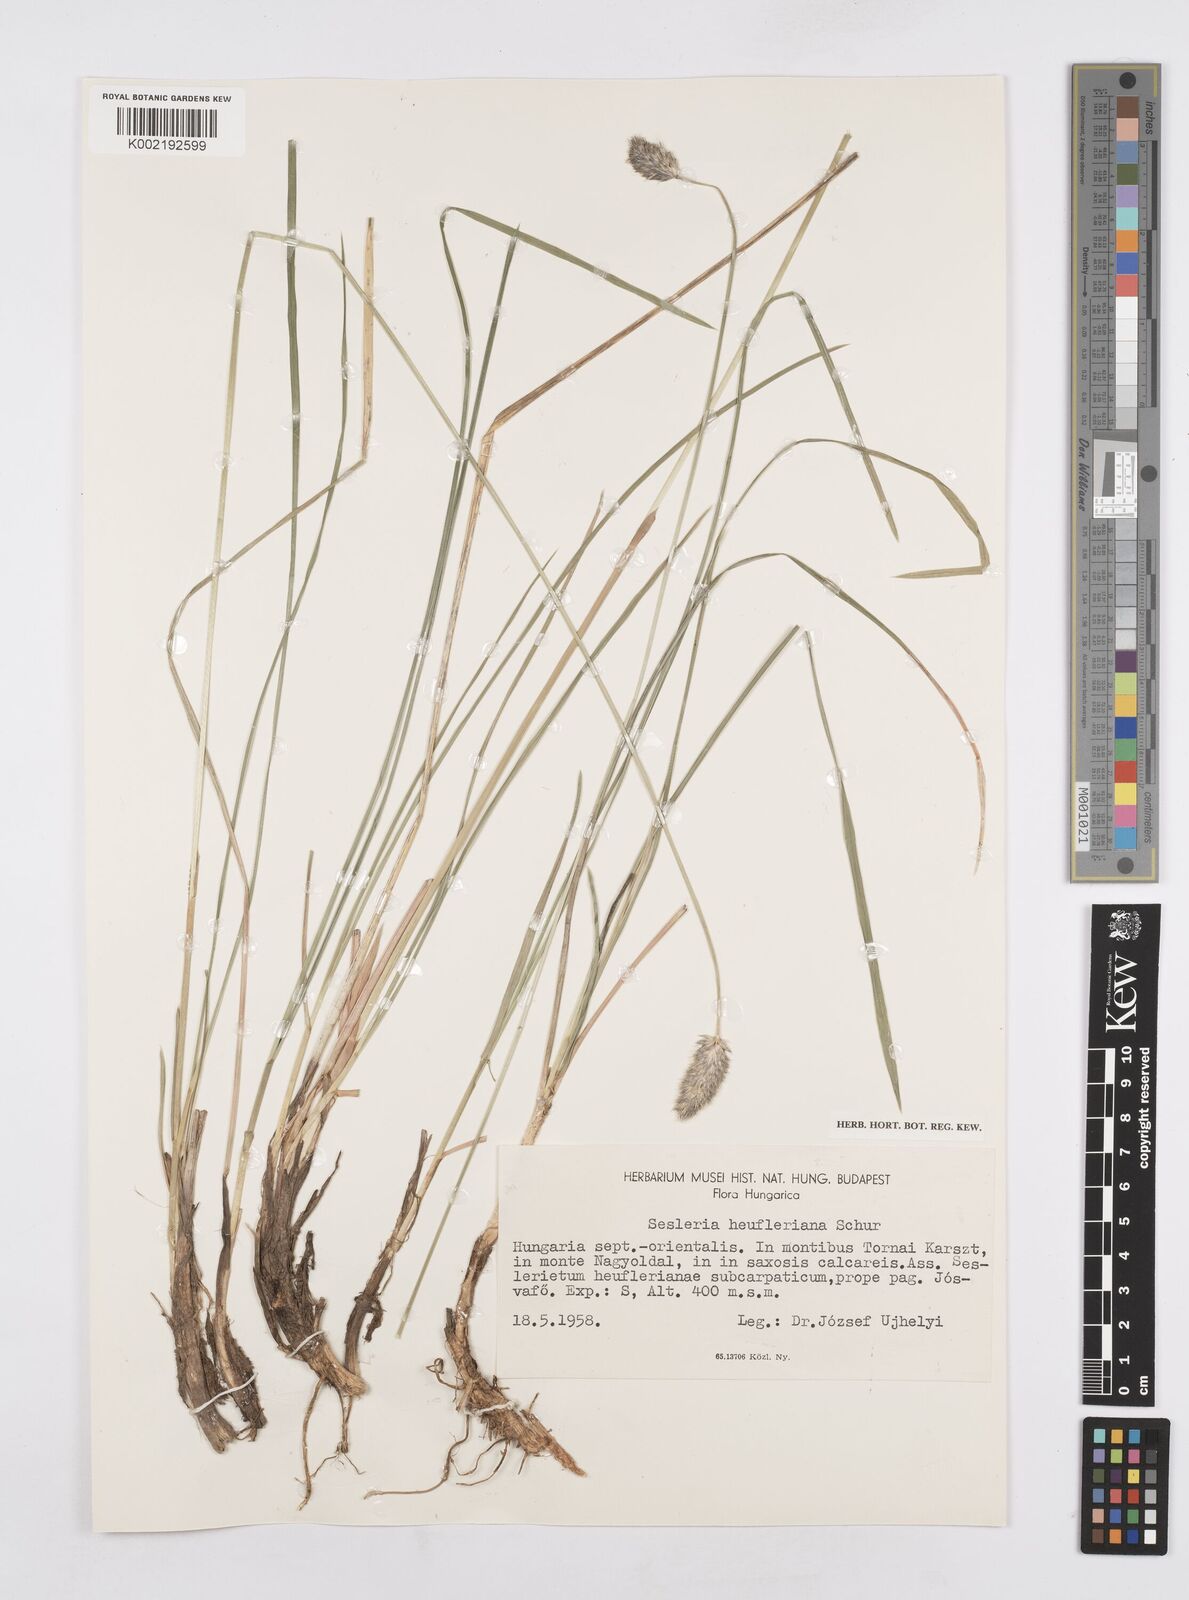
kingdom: Plantae
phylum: Tracheophyta
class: Liliopsida
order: Poales
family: Poaceae
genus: Sesleria
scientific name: Sesleria heufleriana
